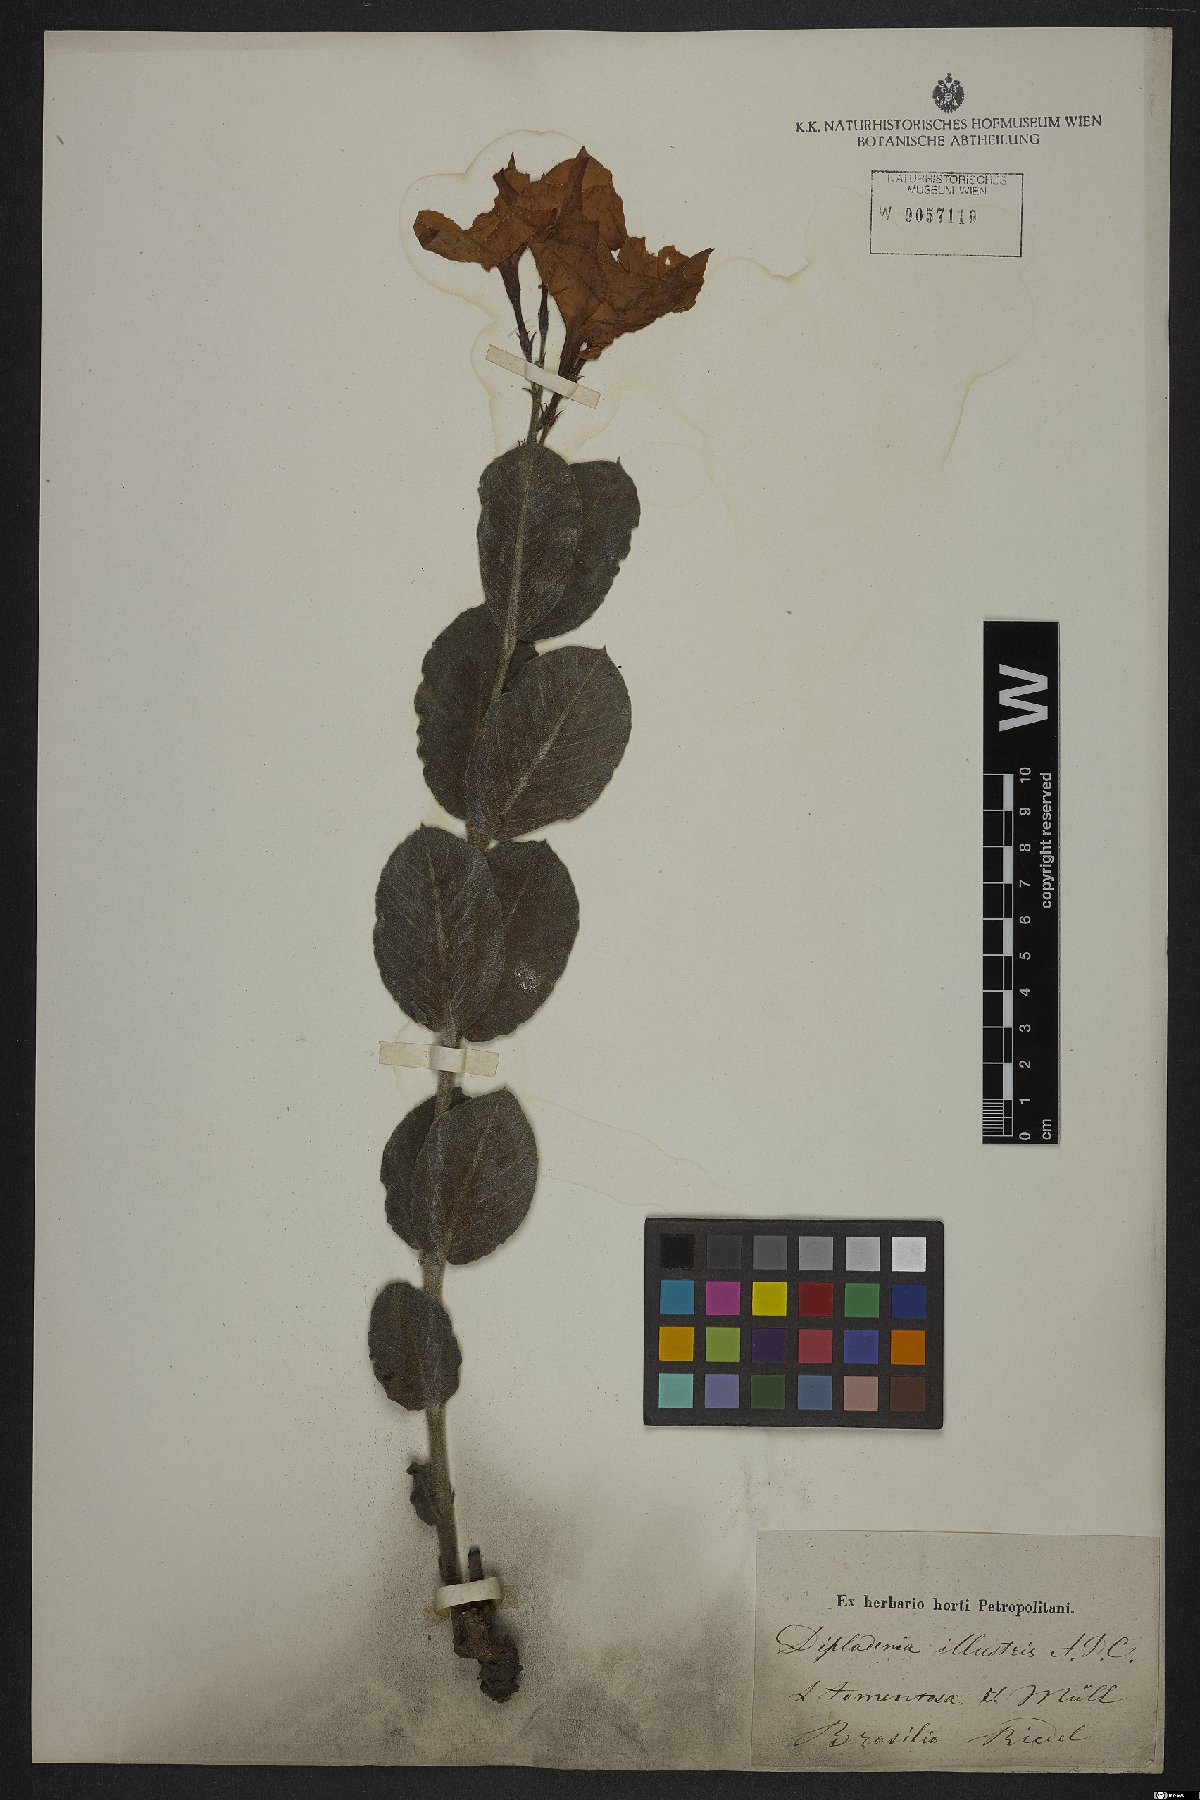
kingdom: Plantae
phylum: Tracheophyta
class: Magnoliopsida
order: Gentianales
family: Apocynaceae
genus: Mandevilla
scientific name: Mandevilla illustris
